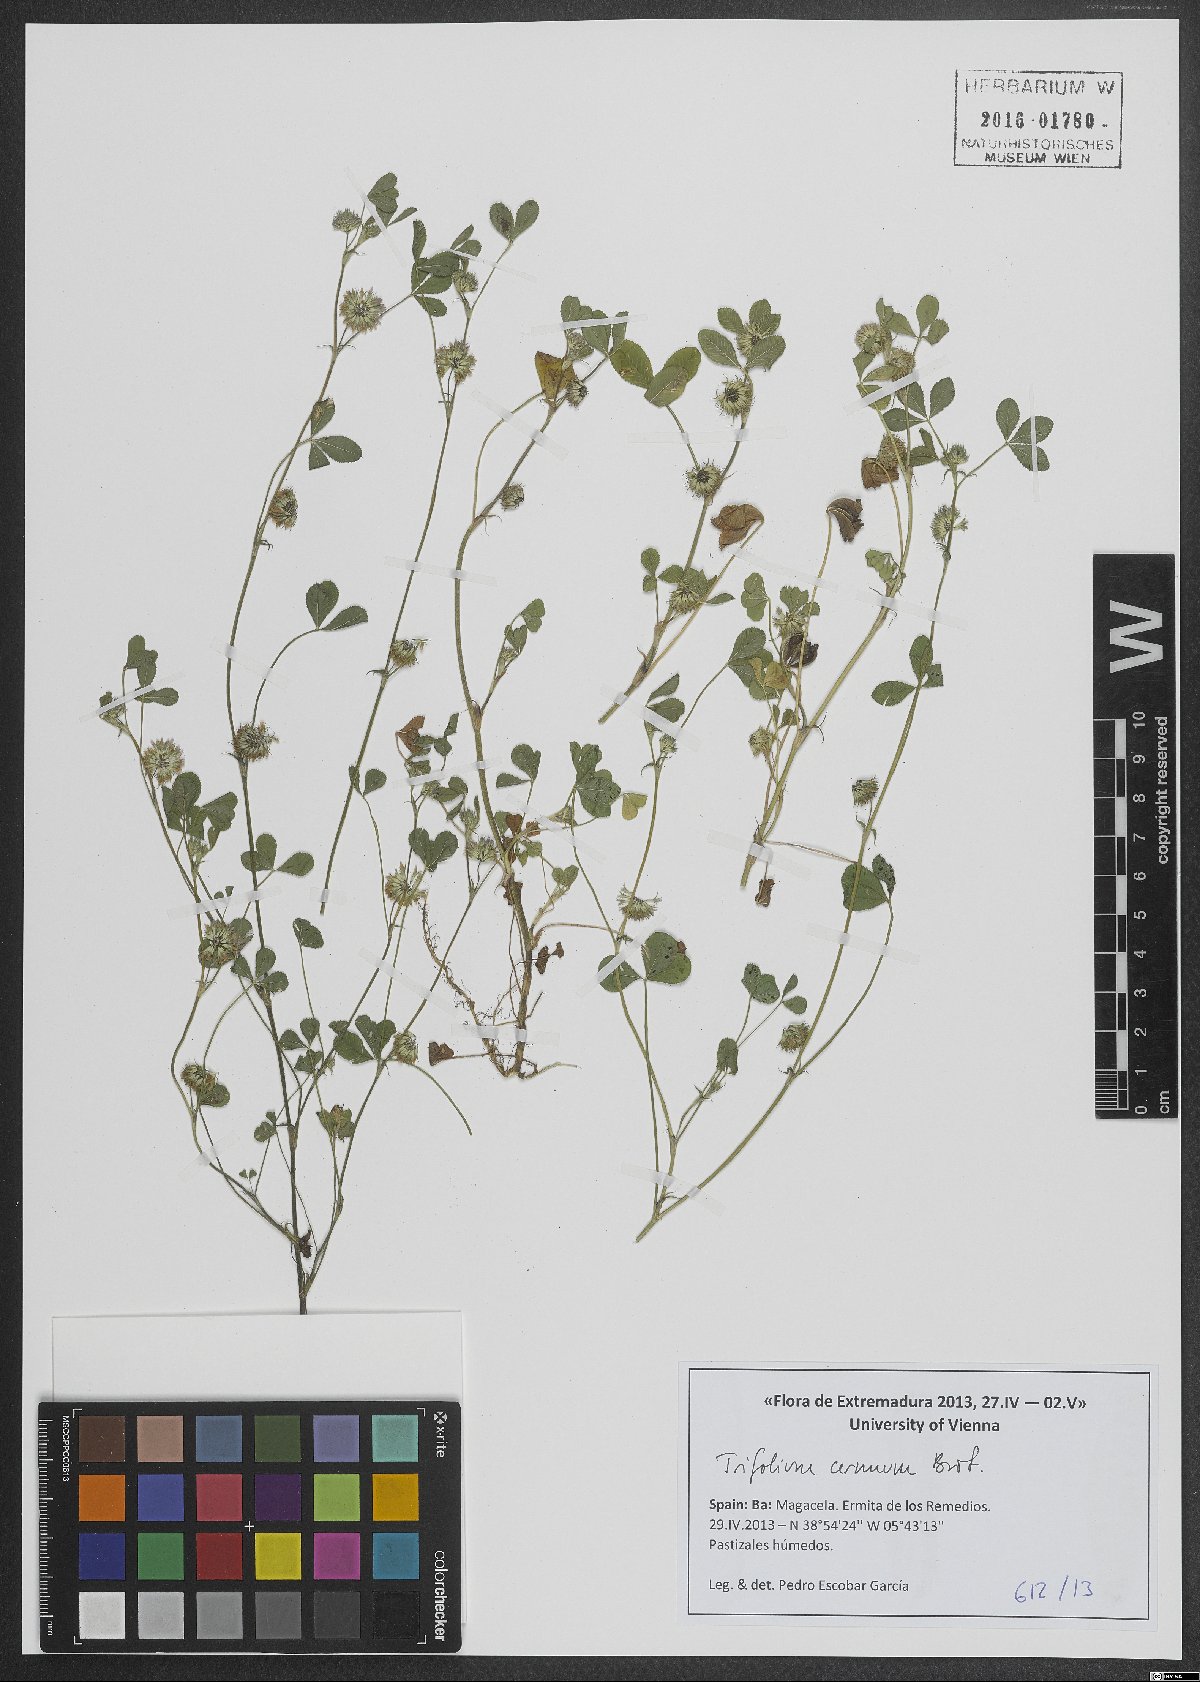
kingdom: Plantae
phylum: Tracheophyta
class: Magnoliopsida
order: Fabales
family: Fabaceae
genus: Trifolium
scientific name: Trifolium cernuum
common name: Nodding clover
